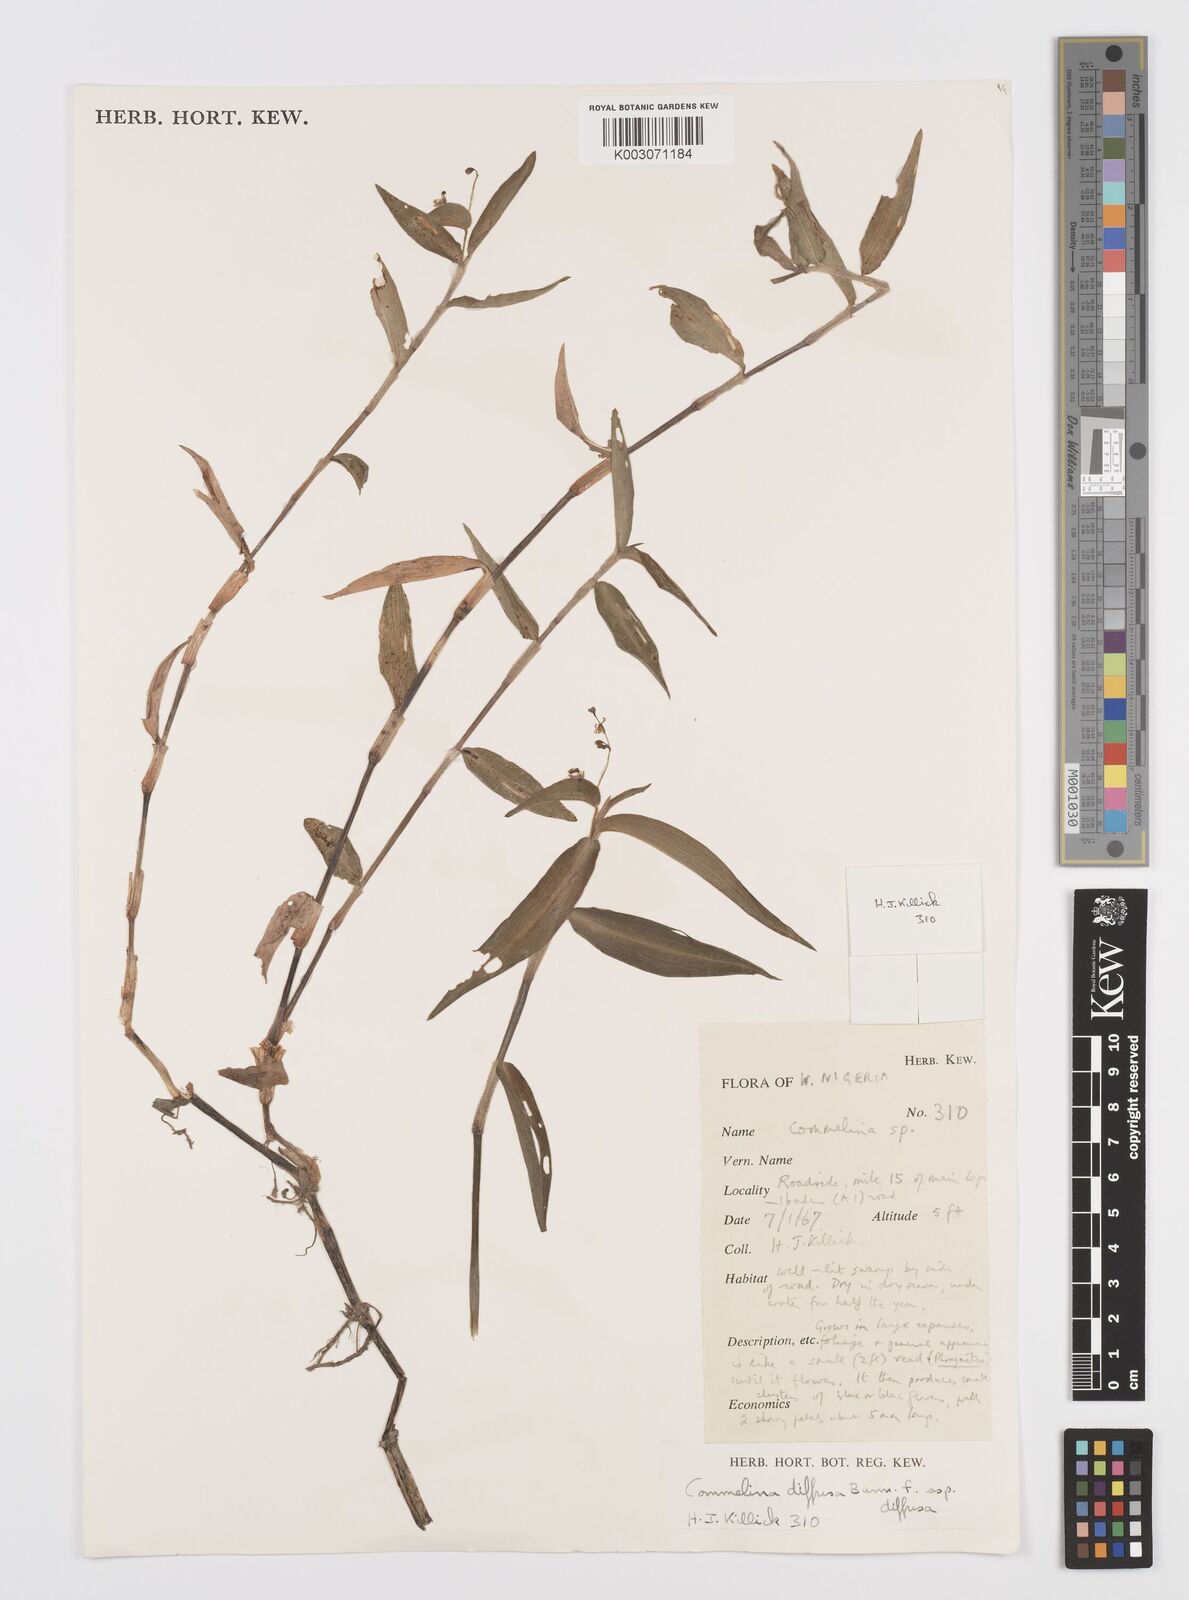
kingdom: Plantae
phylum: Tracheophyta
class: Liliopsida
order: Commelinales
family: Commelinaceae
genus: Commelina
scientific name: Commelina diffusa
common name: Climbing dayflower
